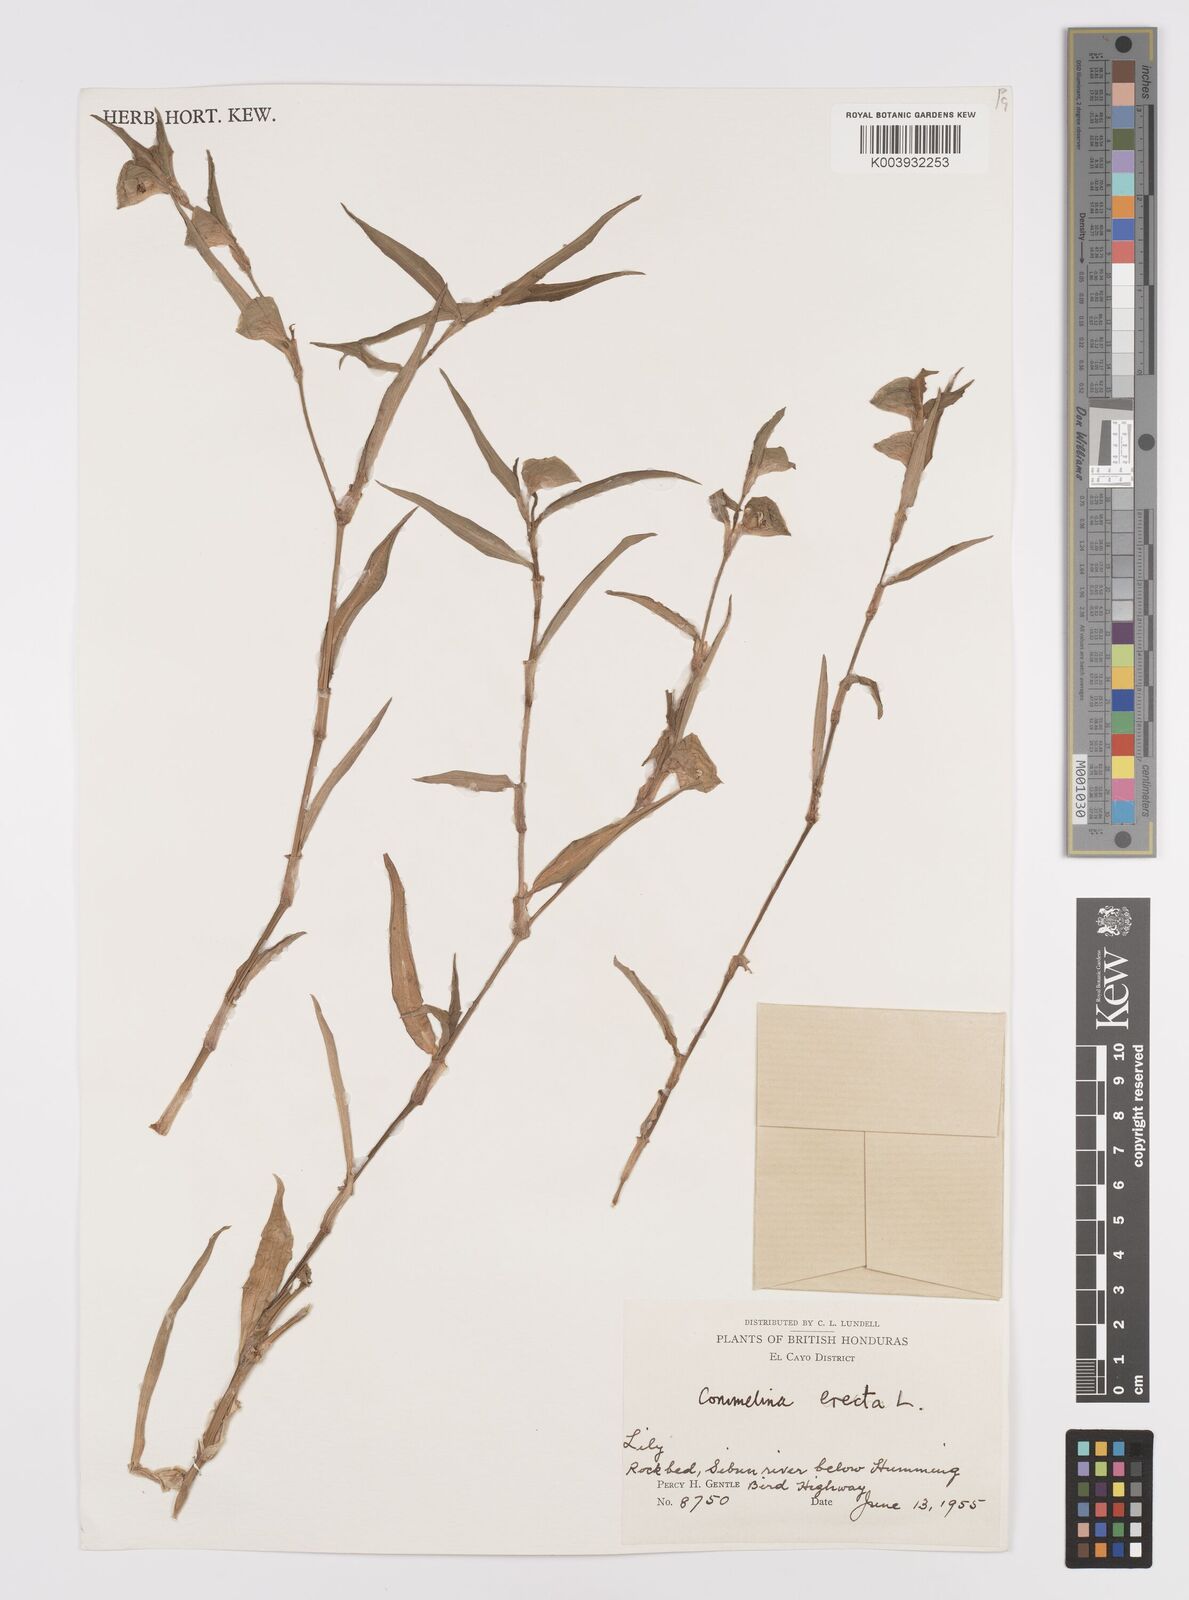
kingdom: Plantae
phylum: Tracheophyta
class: Liliopsida
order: Commelinales
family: Commelinaceae
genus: Commelina
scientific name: Commelina erecta
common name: Blousel blommetjie
